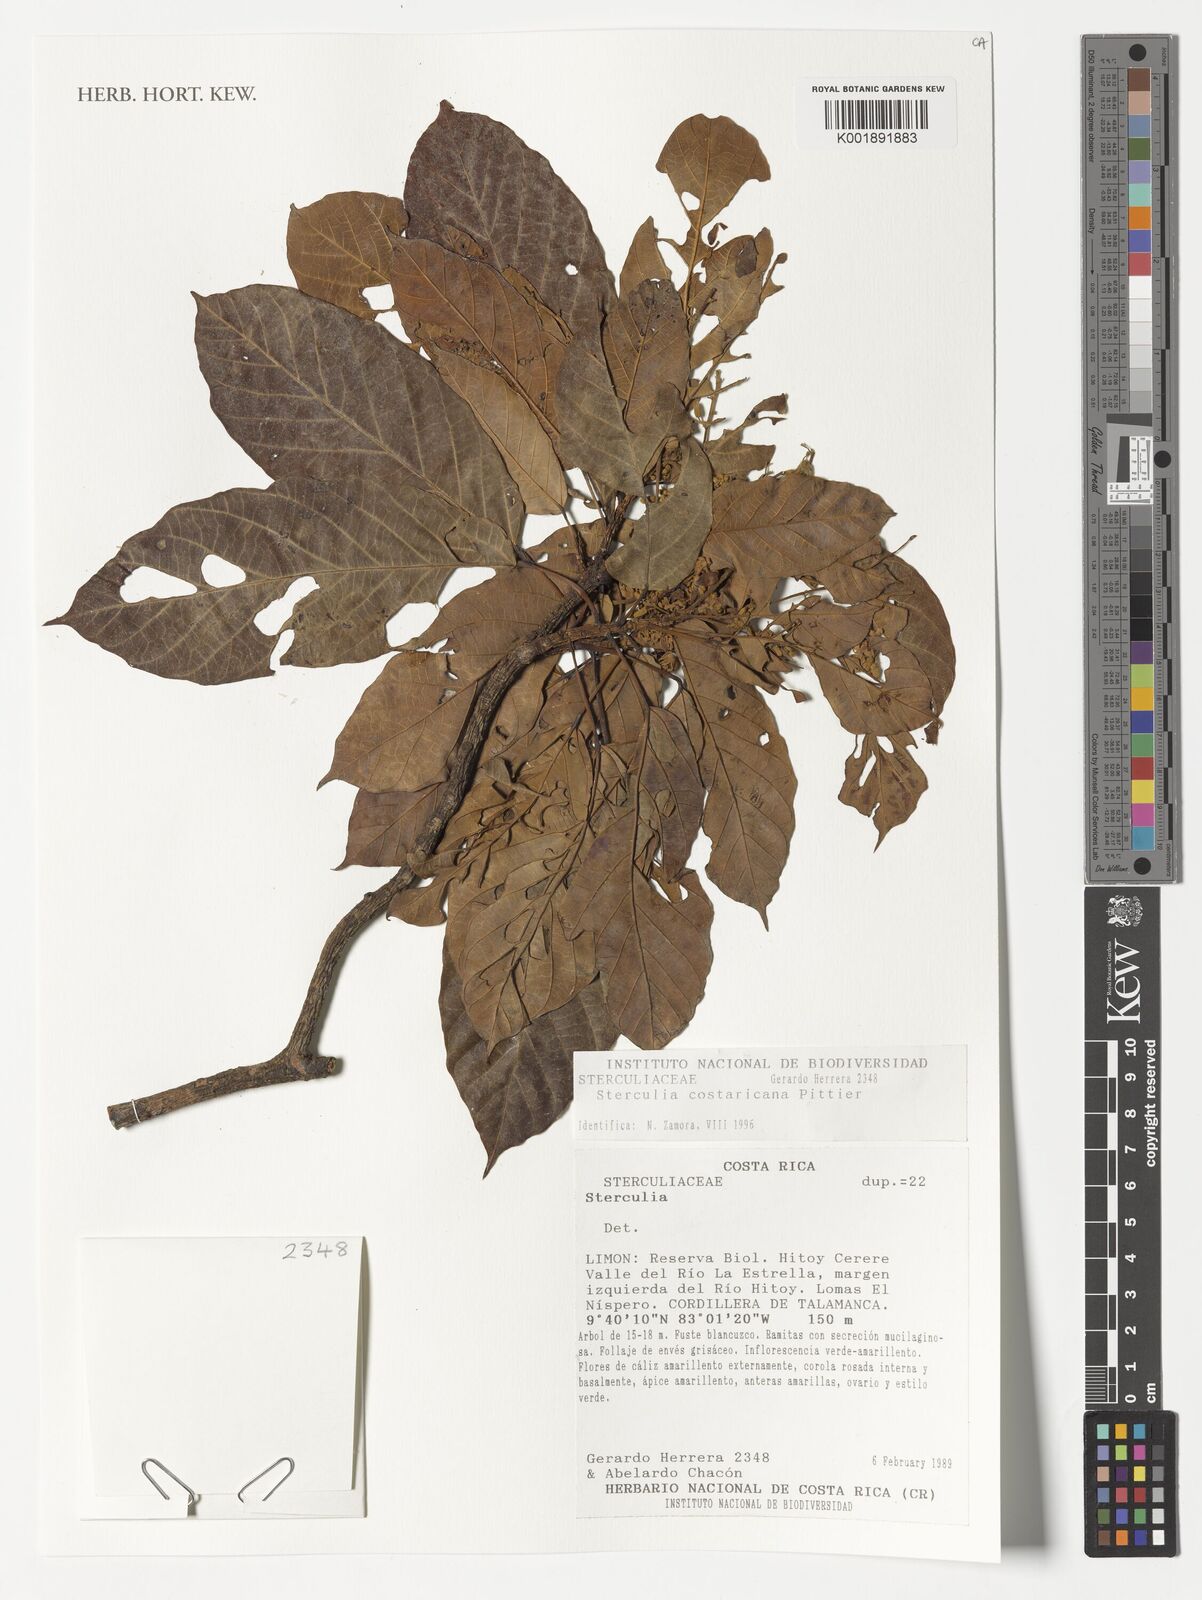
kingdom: Plantae
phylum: Tracheophyta
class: Magnoliopsida
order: Malvales
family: Malvaceae
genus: Sterculia
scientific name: Sterculia costaricana
